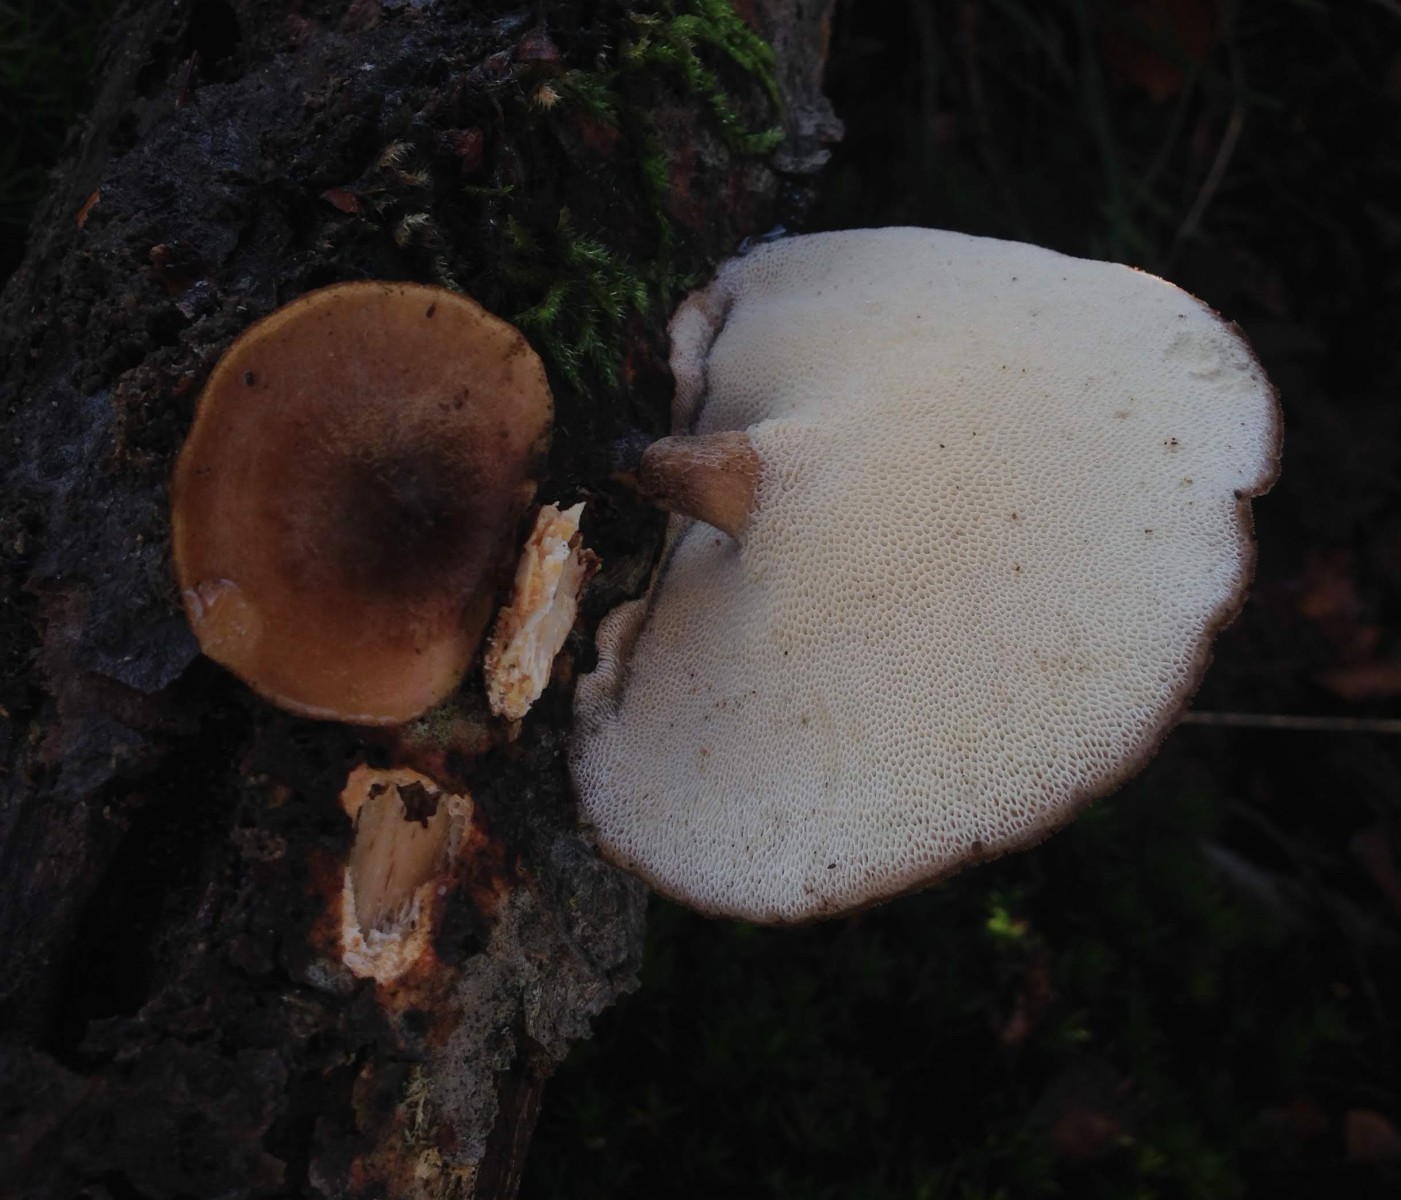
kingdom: Fungi
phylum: Basidiomycota
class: Agaricomycetes
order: Polyporales
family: Polyporaceae
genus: Lentinus
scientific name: Lentinus brumalis
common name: vinter-stilkporesvamp
